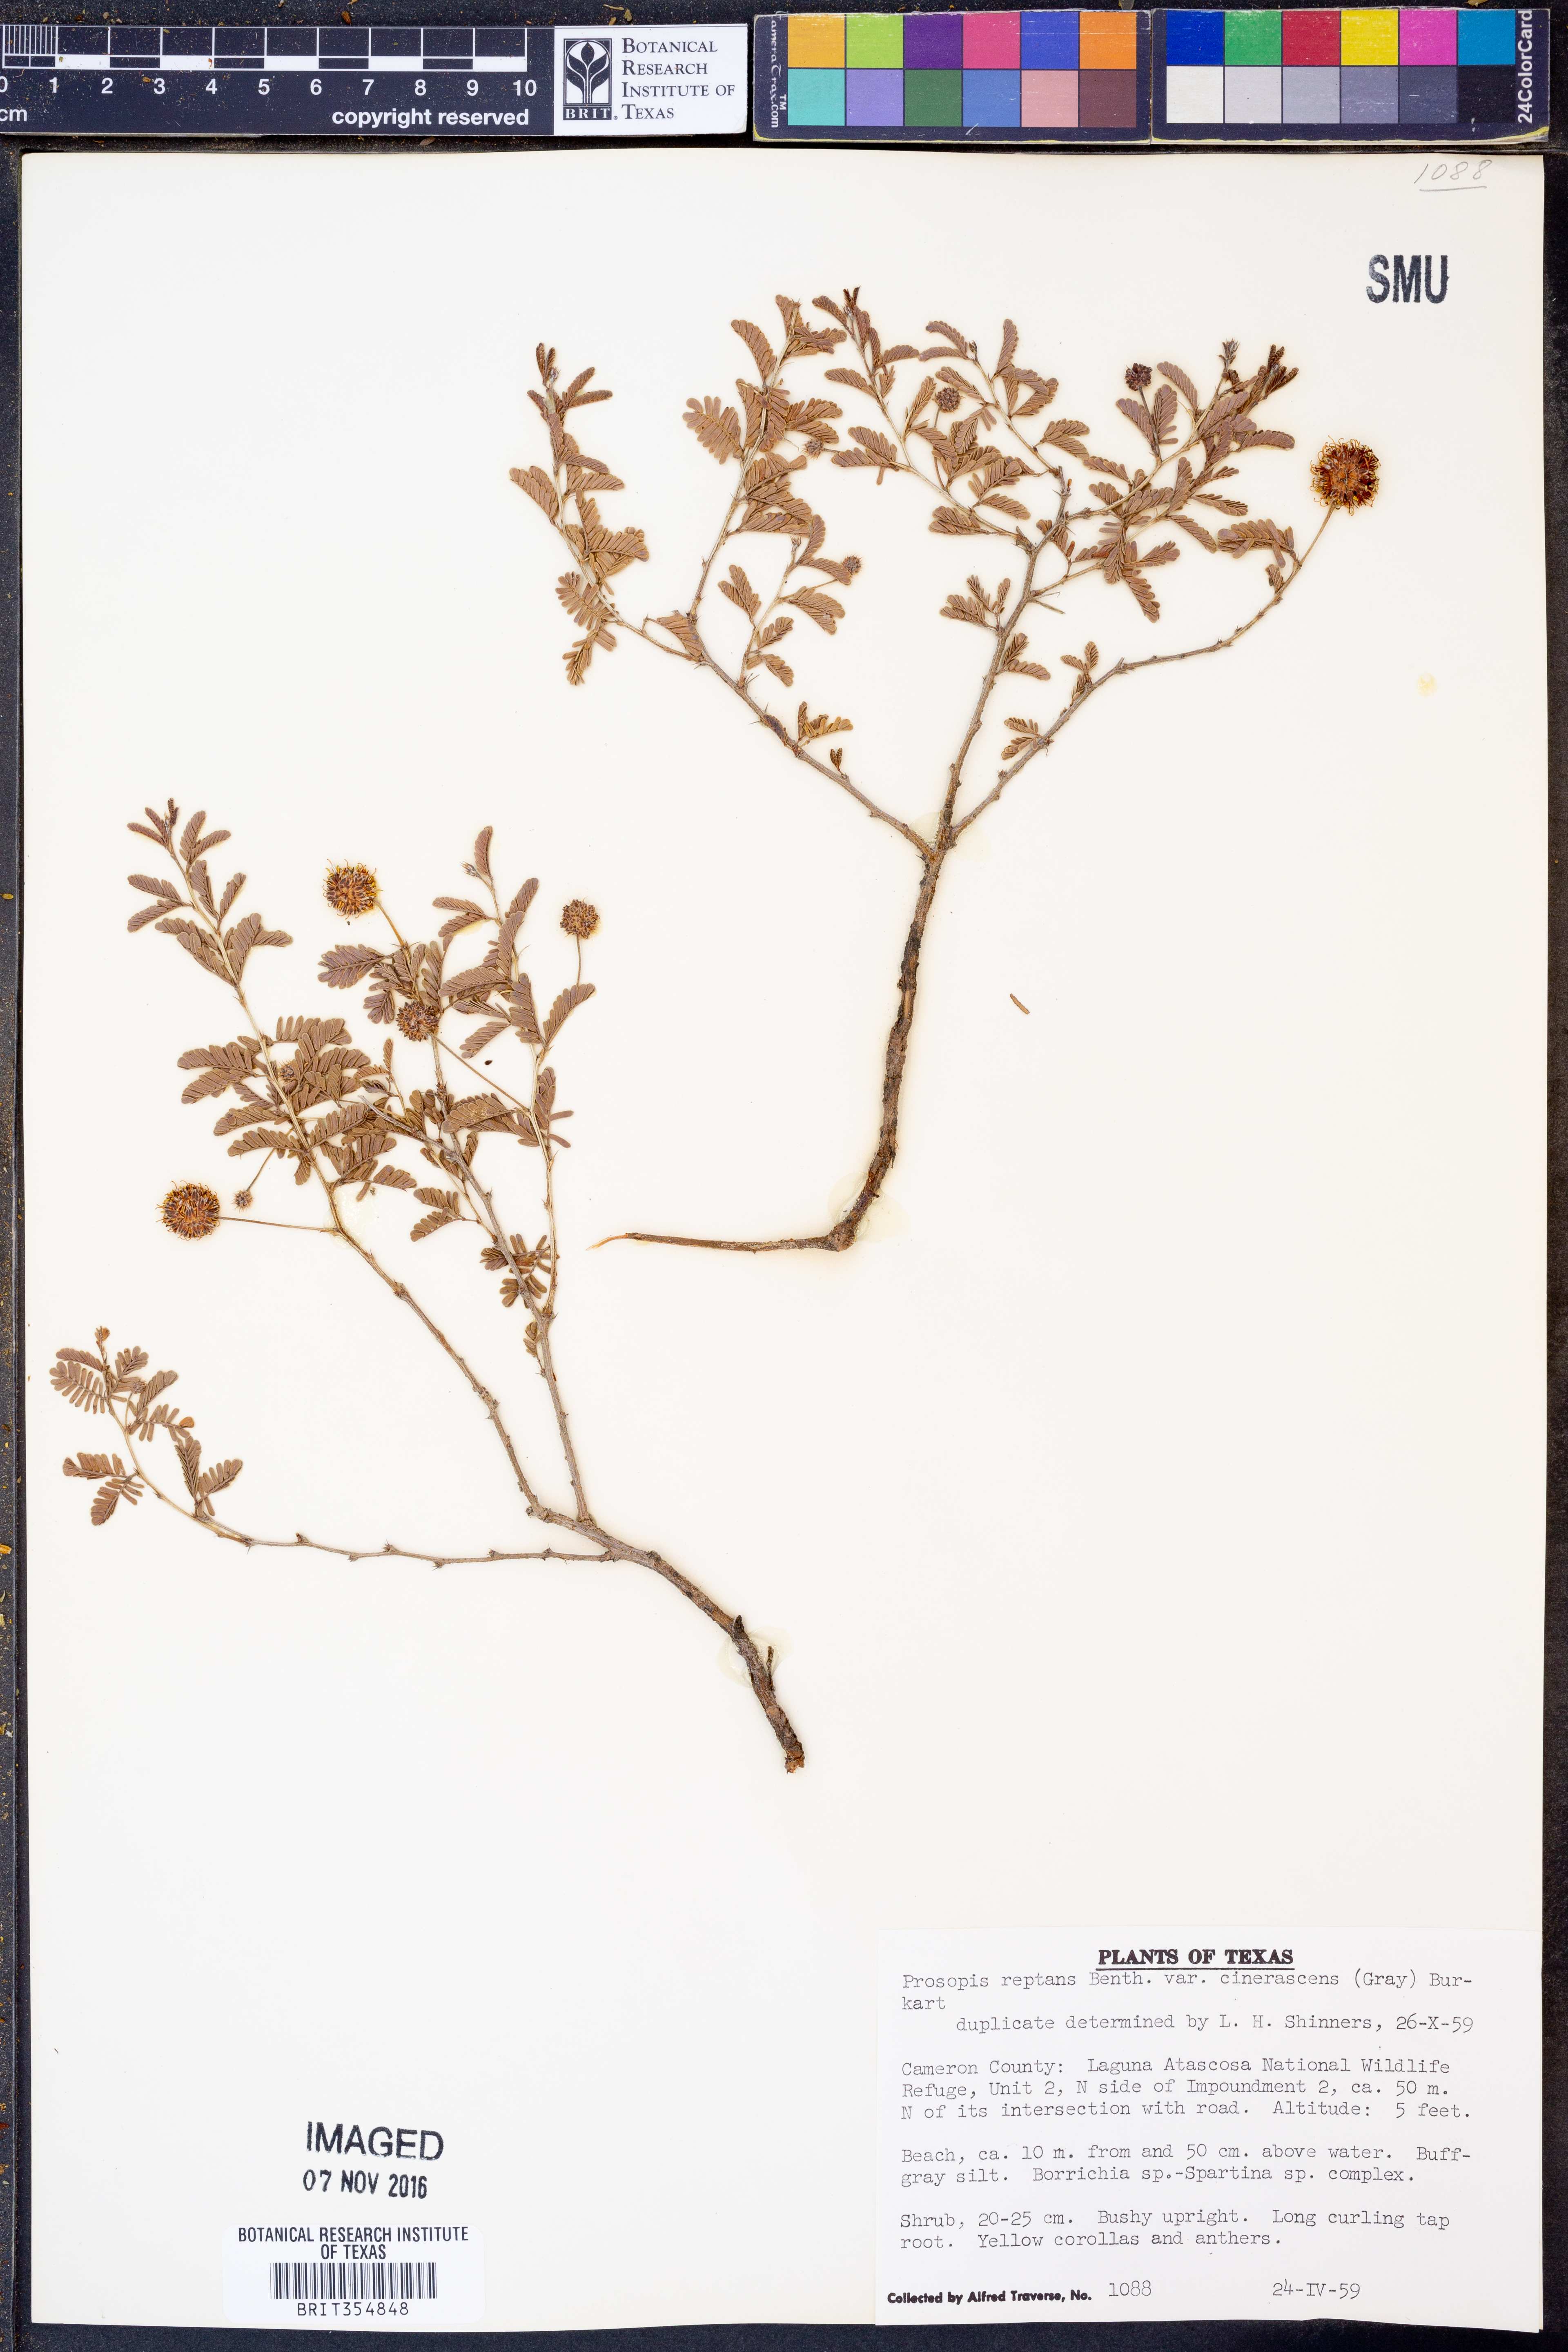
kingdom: Plantae
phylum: Tracheophyta
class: Magnoliopsida
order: Fabales
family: Fabaceae
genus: Prosopis
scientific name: Prosopis cinerascens
